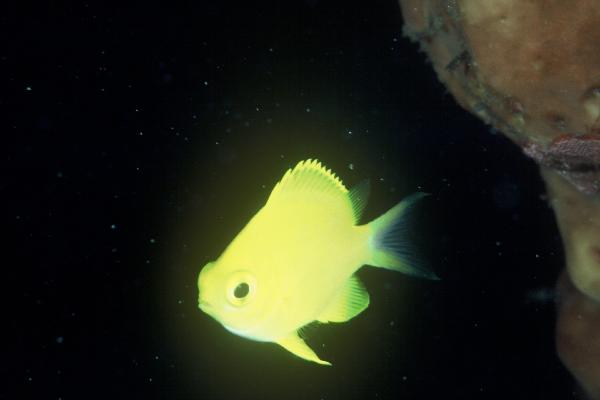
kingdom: Animalia
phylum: Chordata
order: Perciformes
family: Pomacentridae
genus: Chromis
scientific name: Chromis analis
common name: Yellow chromis
